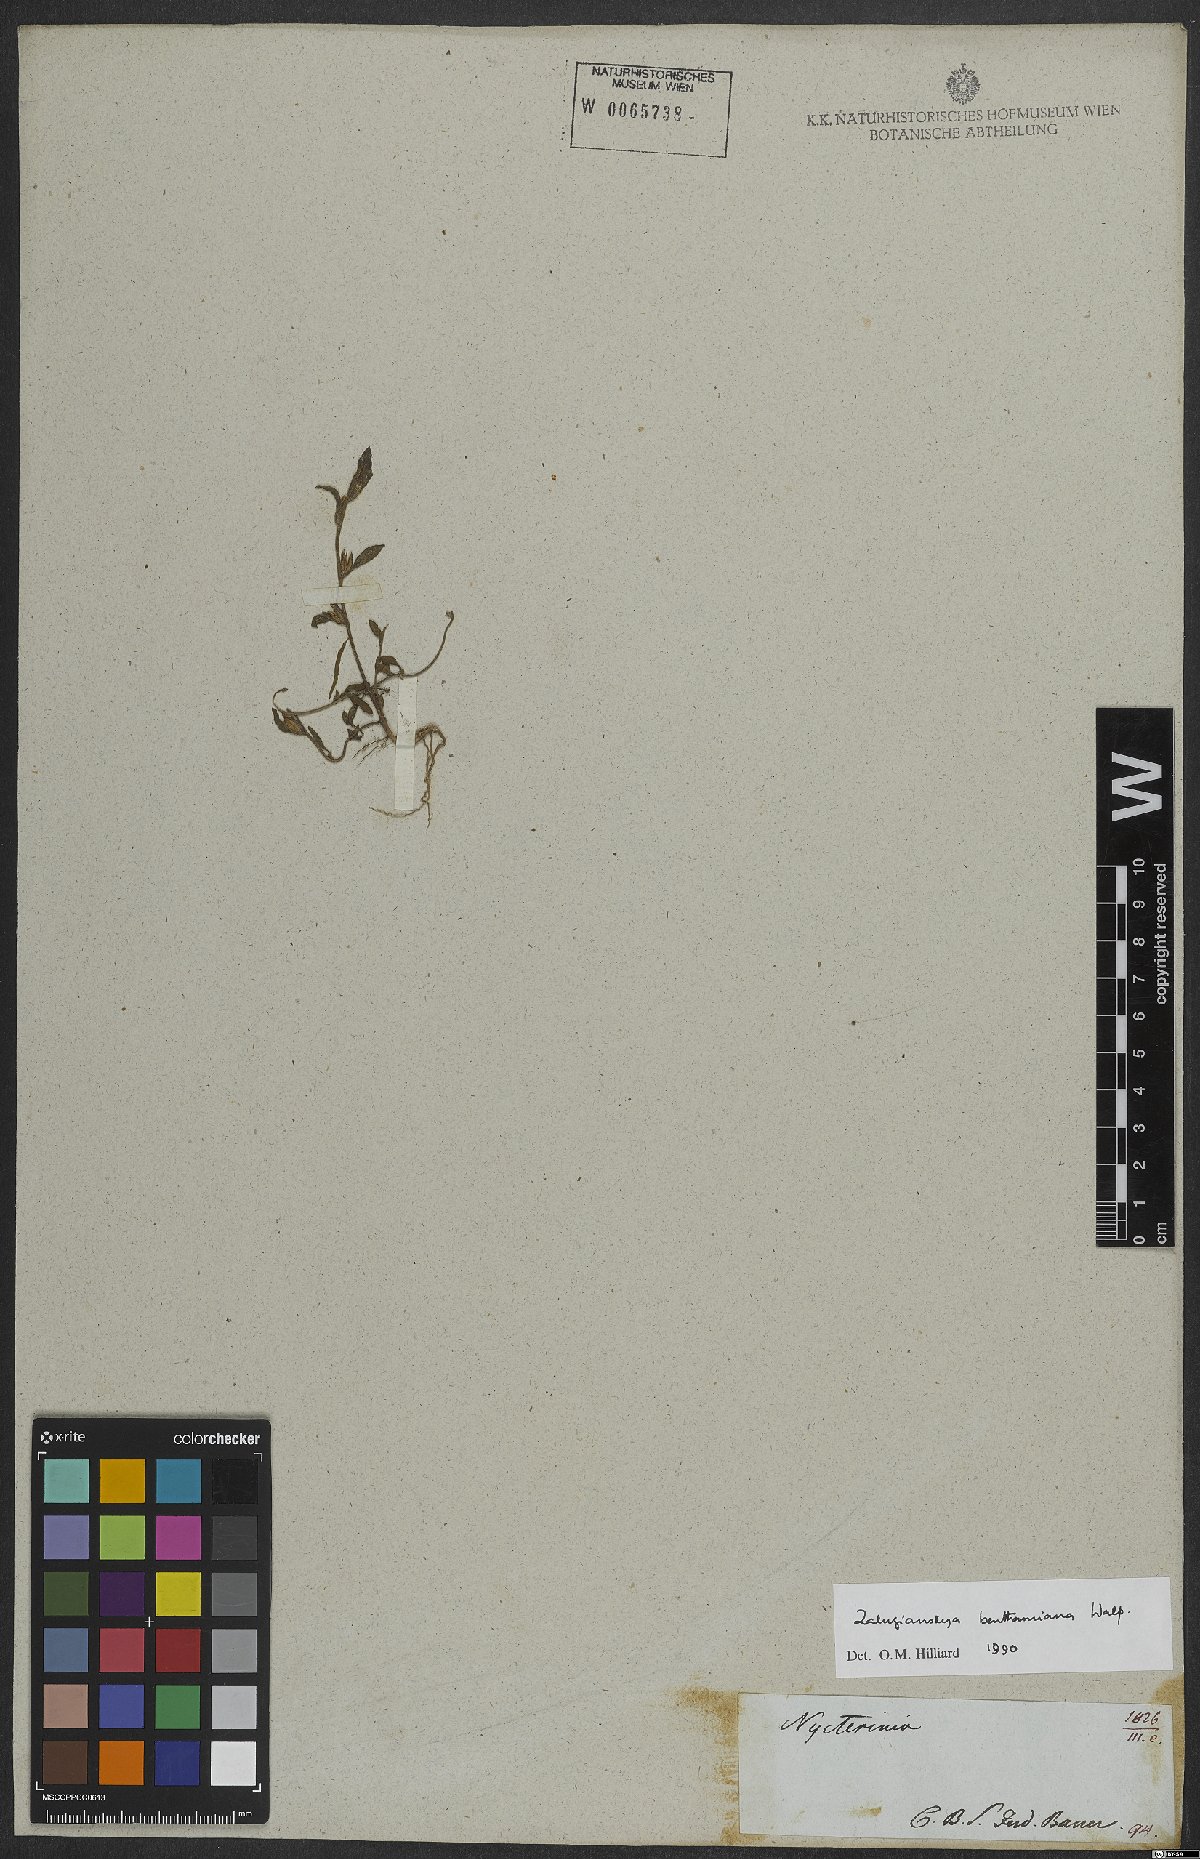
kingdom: Plantae
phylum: Tracheophyta
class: Magnoliopsida
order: Lamiales
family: Scrophulariaceae
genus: Zaluzianskya
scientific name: Zaluzianskya benthamiana
